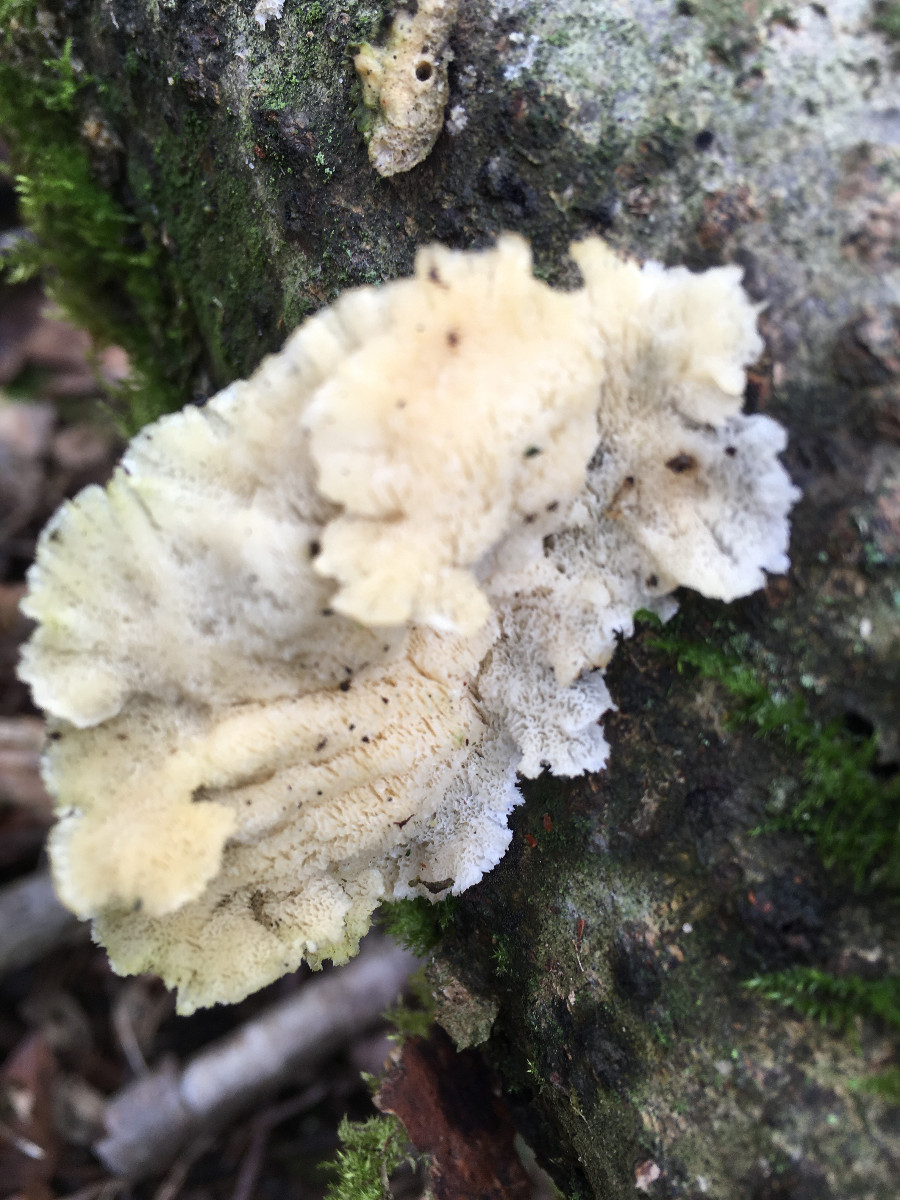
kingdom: Fungi
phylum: Basidiomycota
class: Agaricomycetes
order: Polyporales
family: Polyporaceae
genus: Trametes
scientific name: Trametes versicolor
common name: broget læderporesvamp
